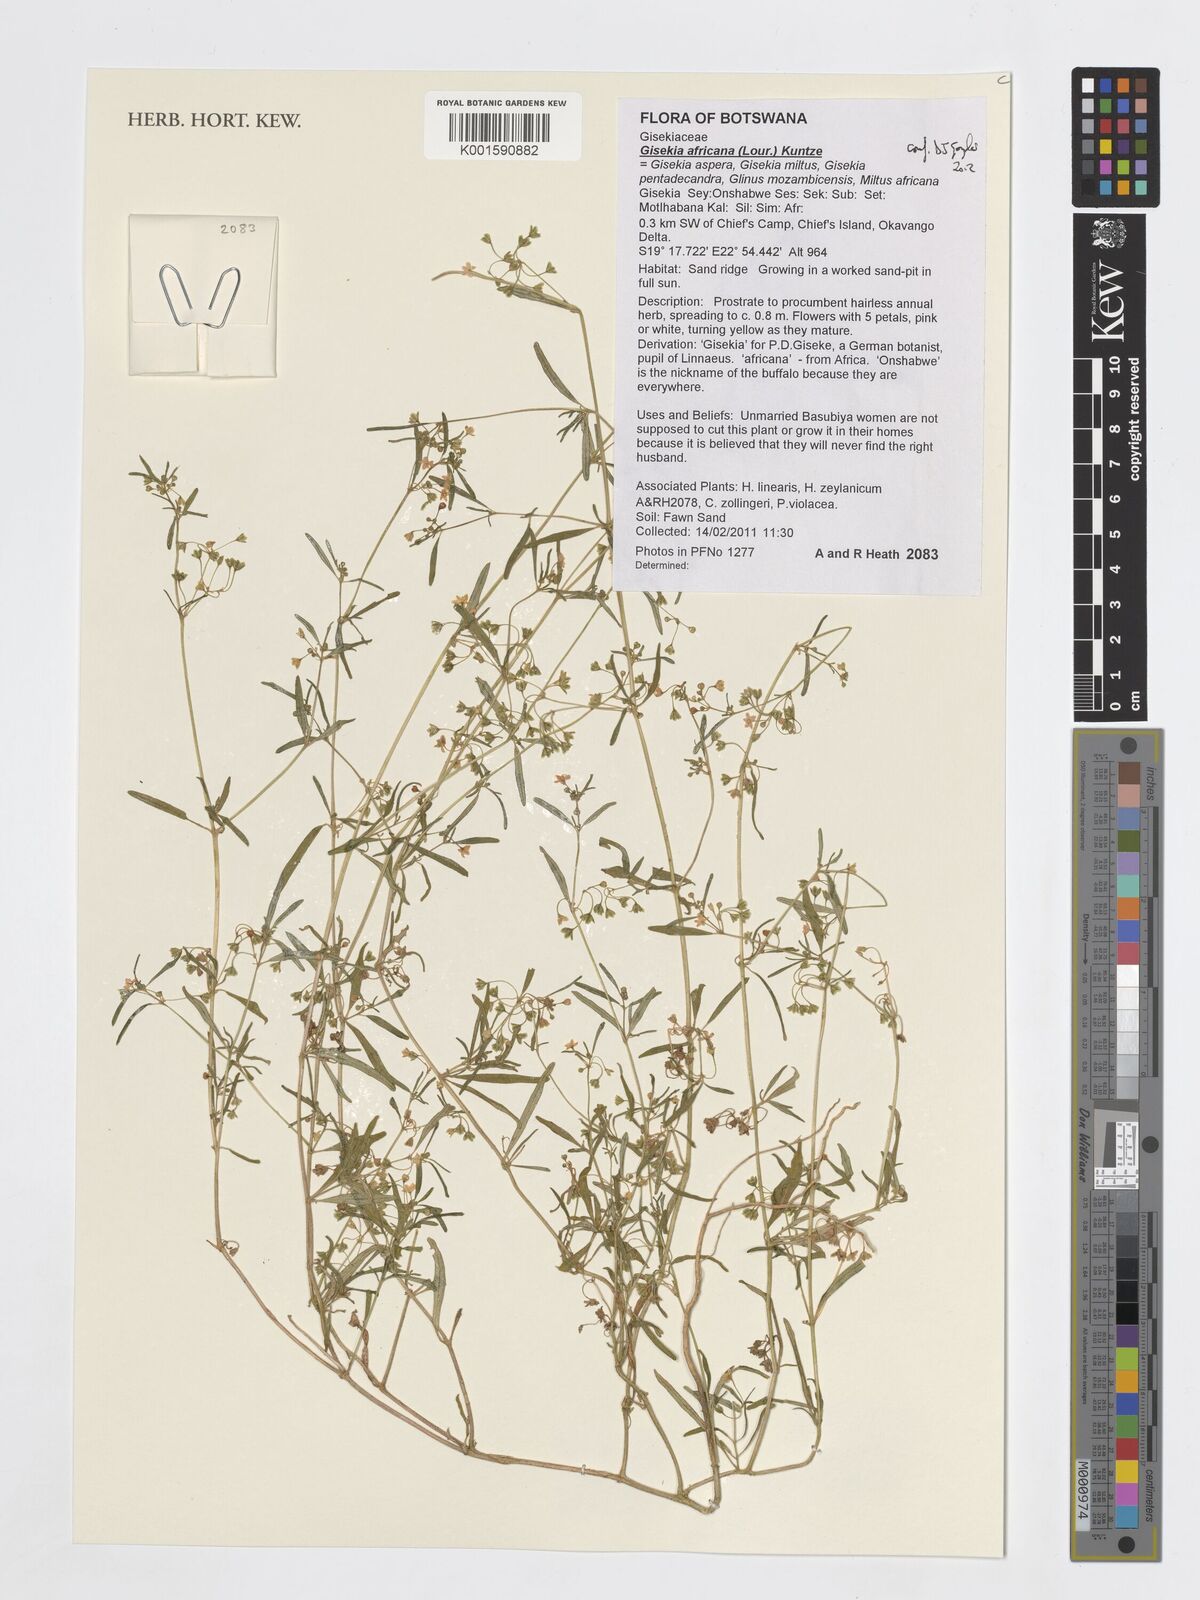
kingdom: Plantae
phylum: Tracheophyta
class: Magnoliopsida
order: Caryophyllales
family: Gisekiaceae
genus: Gisekia
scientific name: Gisekia africana
